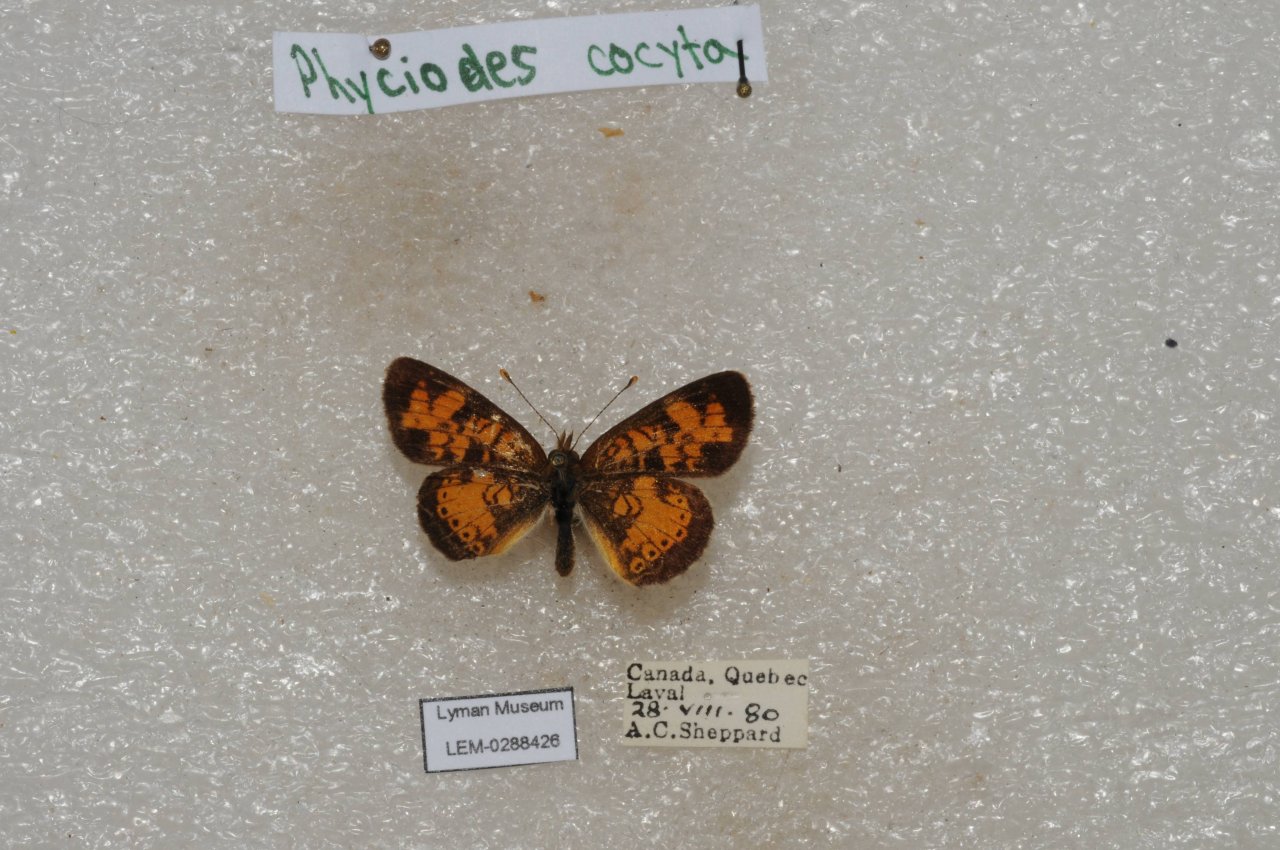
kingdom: Animalia
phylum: Arthropoda
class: Insecta
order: Lepidoptera
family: Nymphalidae
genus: Phyciodes
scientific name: Phyciodes tharos
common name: Northern Crescent
